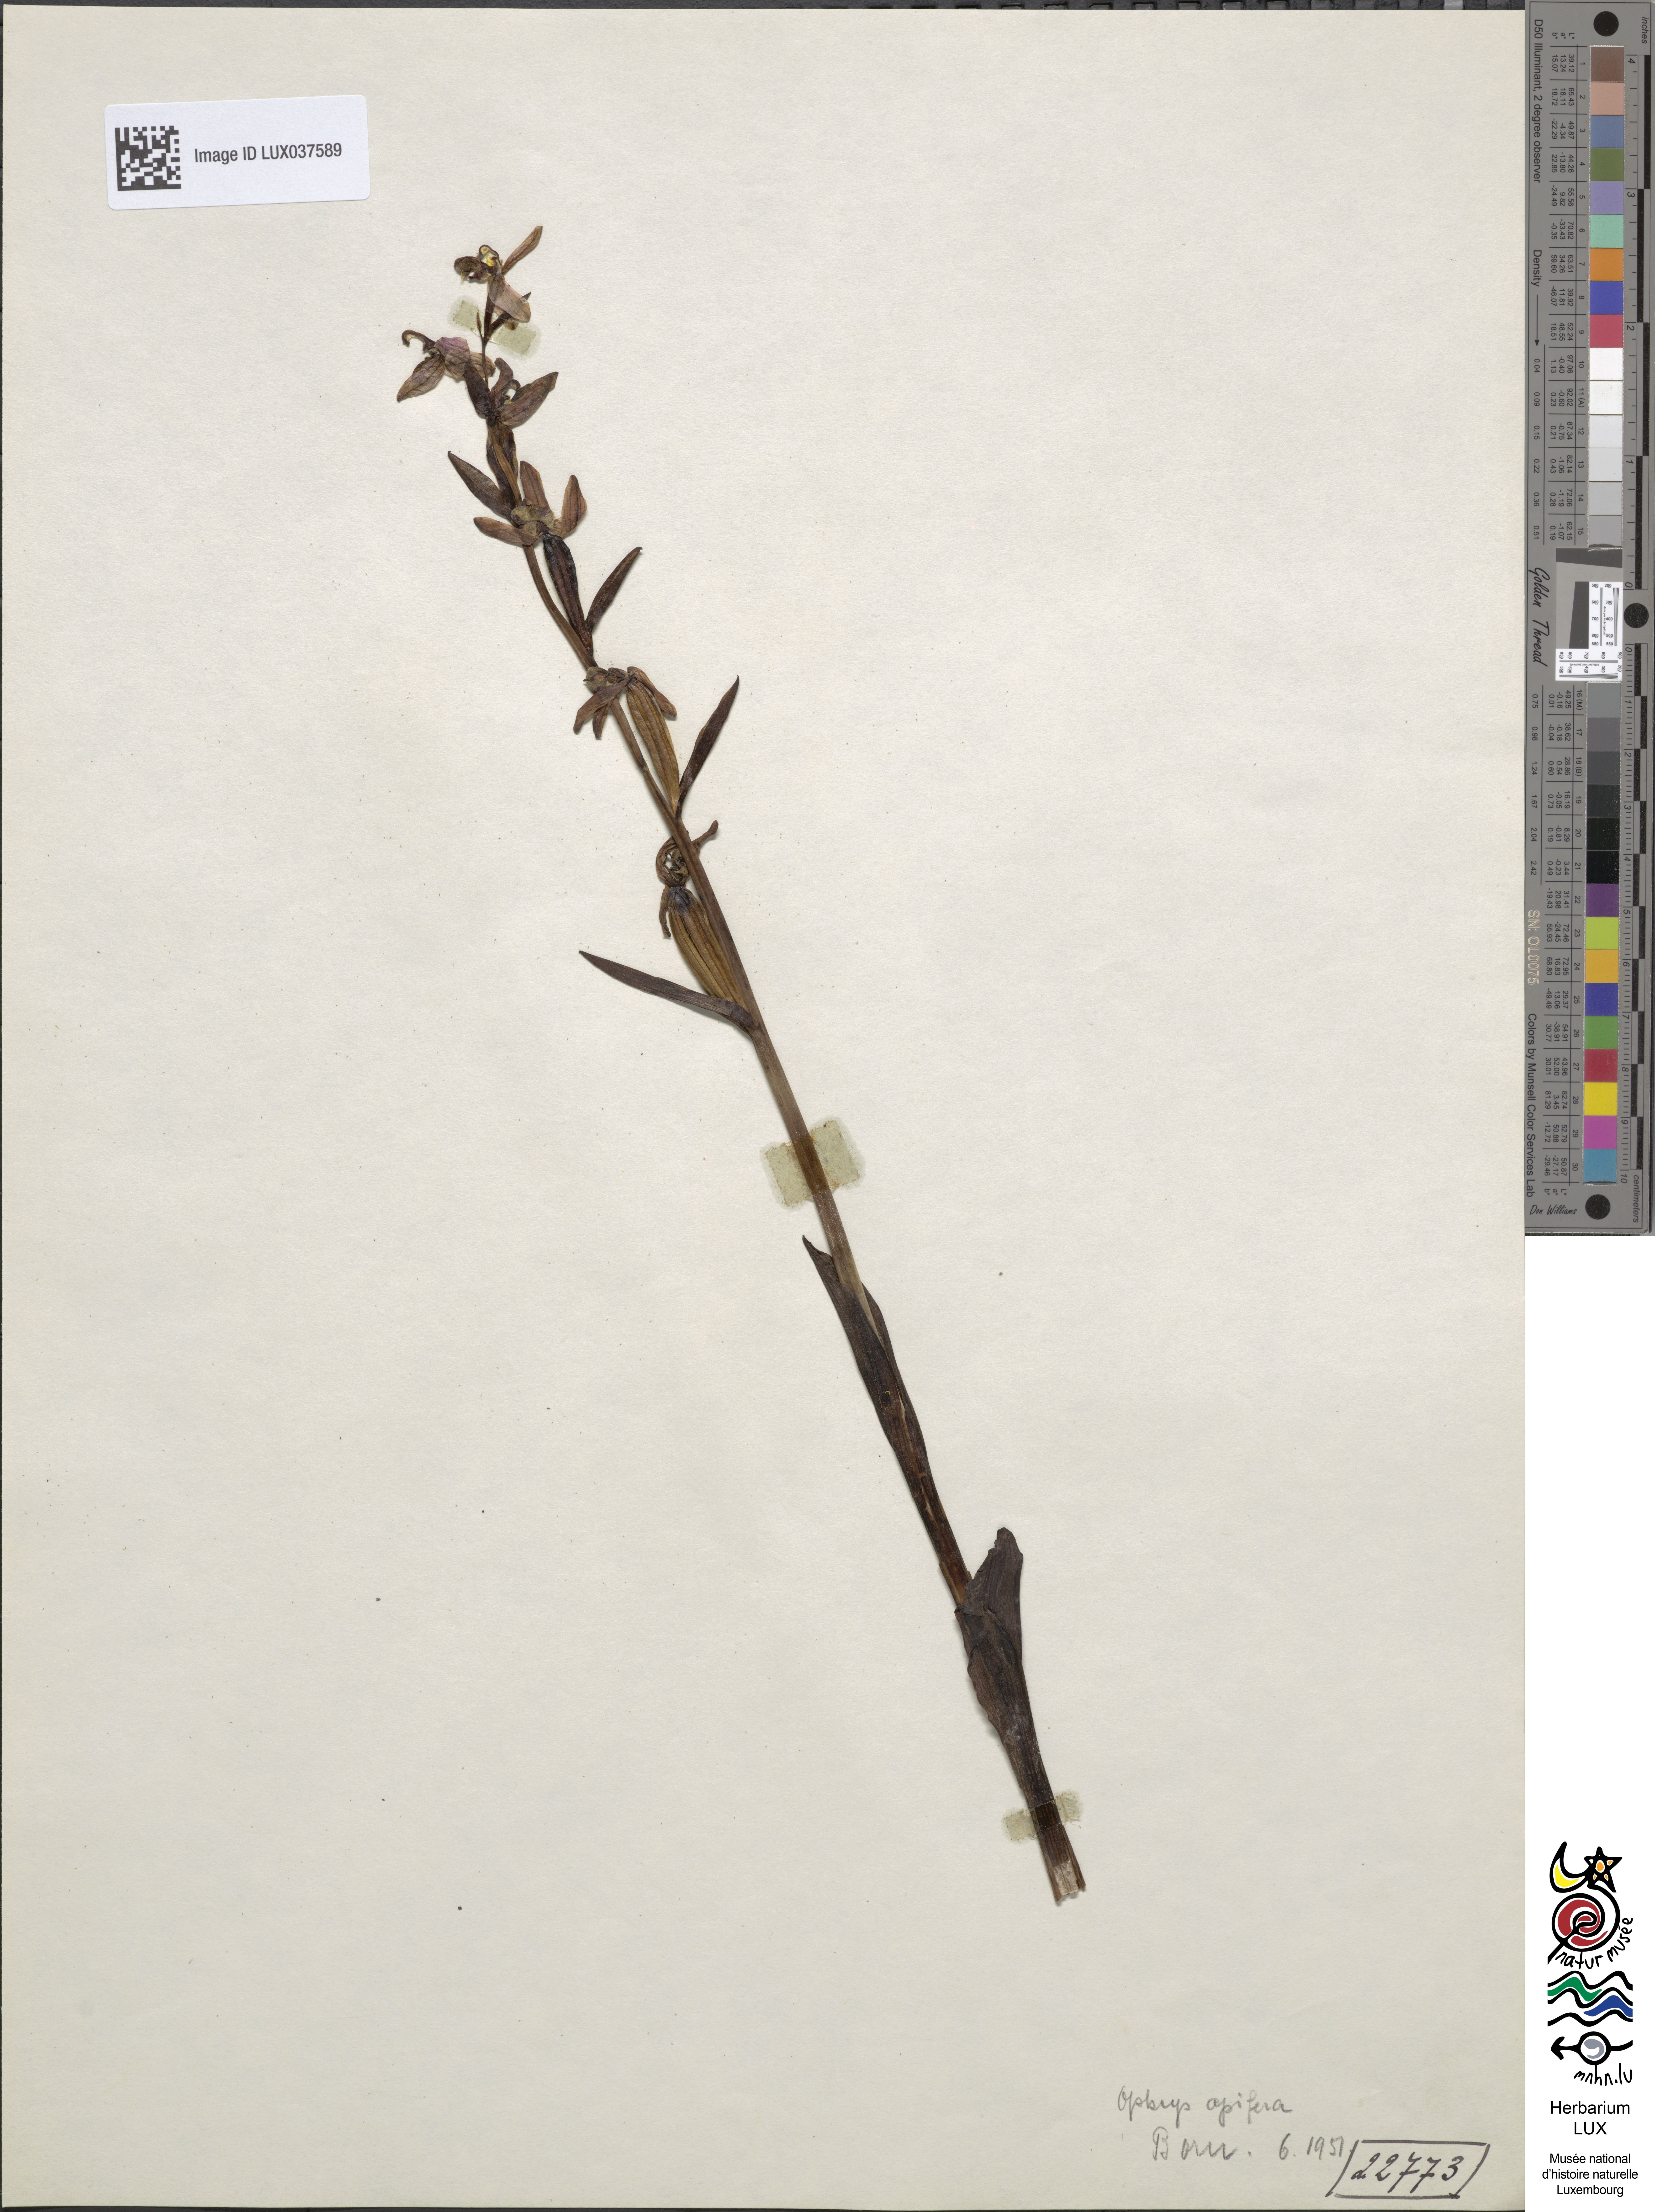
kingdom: Plantae
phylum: Tracheophyta
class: Liliopsida
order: Asparagales
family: Orchidaceae
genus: Ophrys
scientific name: Ophrys apifera
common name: Bee orchid
